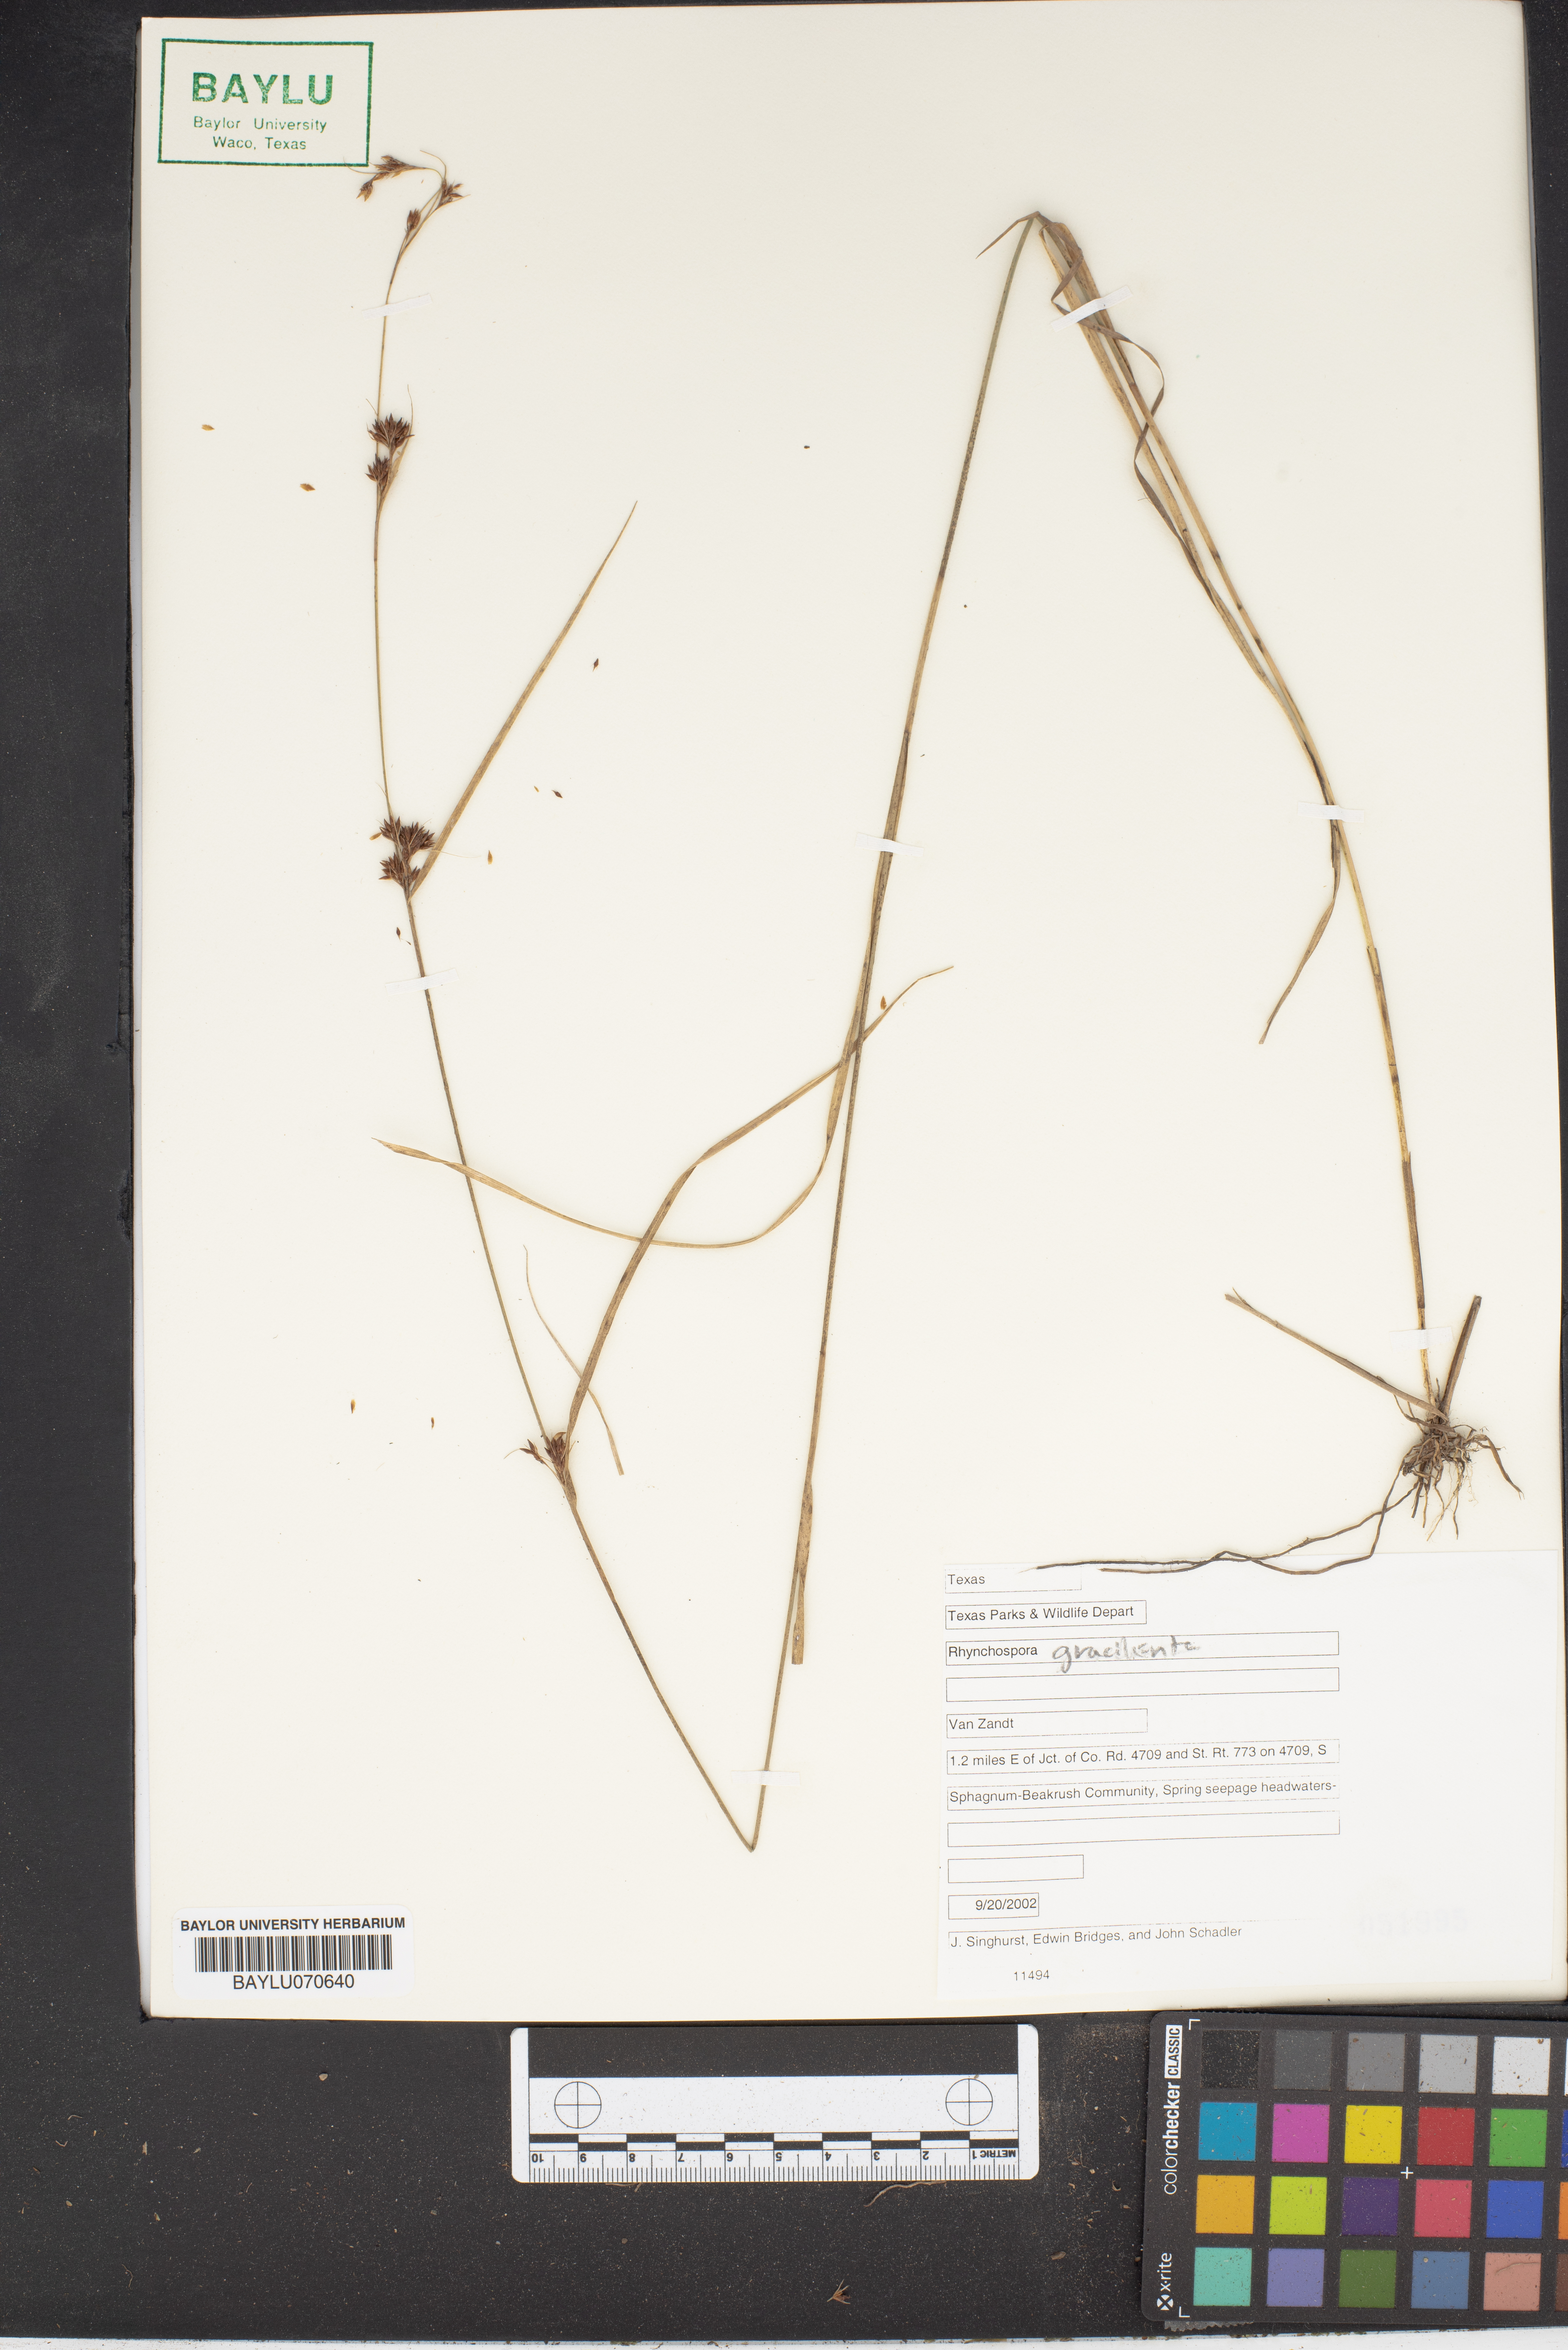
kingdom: Plantae
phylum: Tracheophyta
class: Liliopsida
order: Poales
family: Cyperaceae
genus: Rhynchospora
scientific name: Rhynchospora gracilenta
